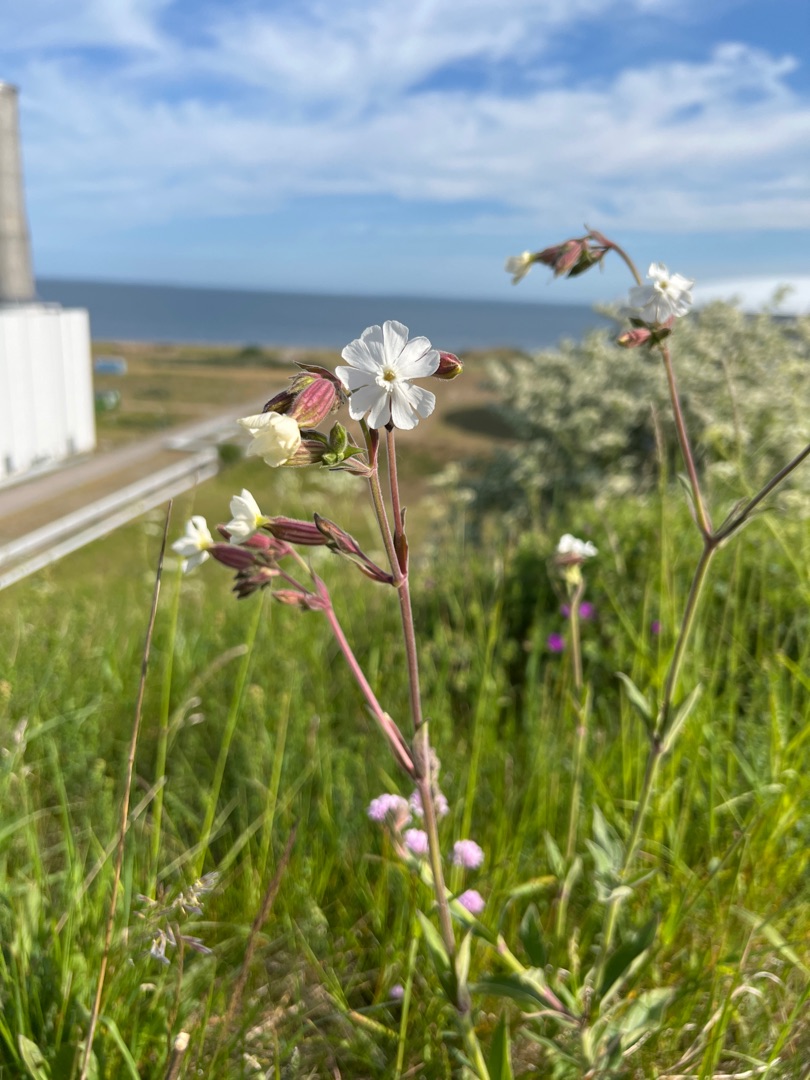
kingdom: Plantae
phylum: Tracheophyta
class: Magnoliopsida
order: Caryophyllales
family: Caryophyllaceae
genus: Silene
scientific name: Silene latifolia
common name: Aftenpragtstjerne
